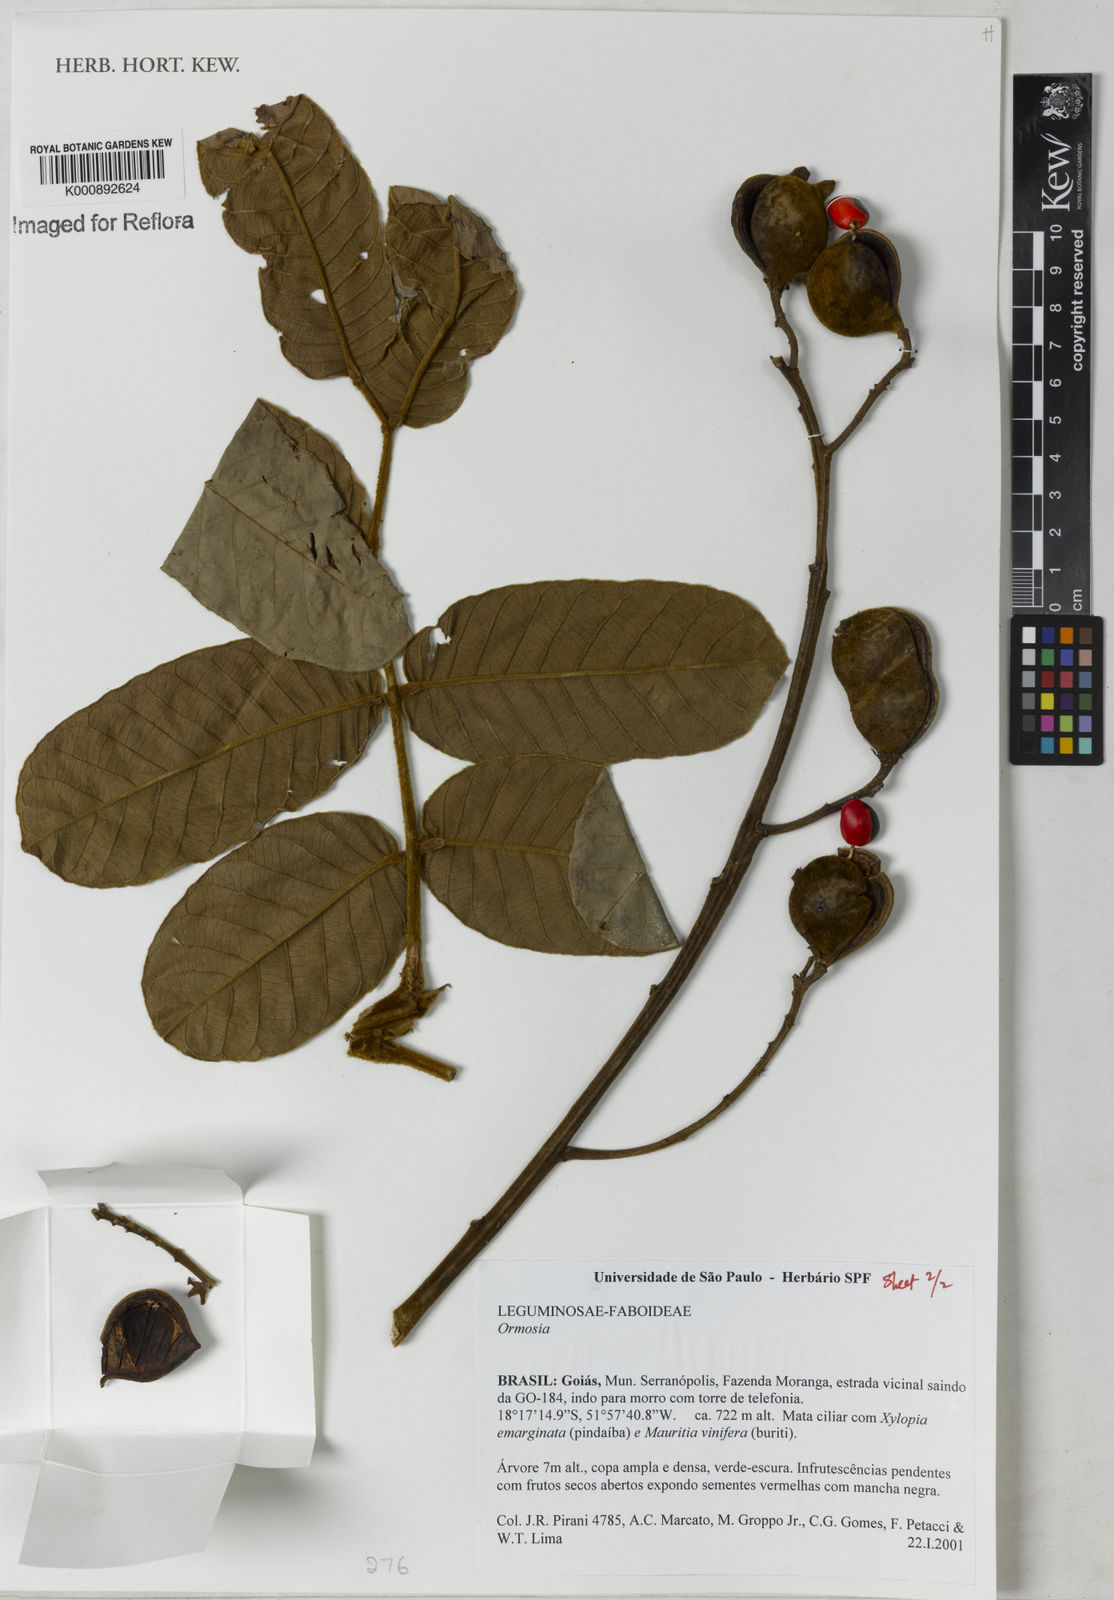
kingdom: Plantae
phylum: Tracheophyta
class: Magnoliopsida
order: Fabales
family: Fabaceae
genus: Ormosia
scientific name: Ormosia
